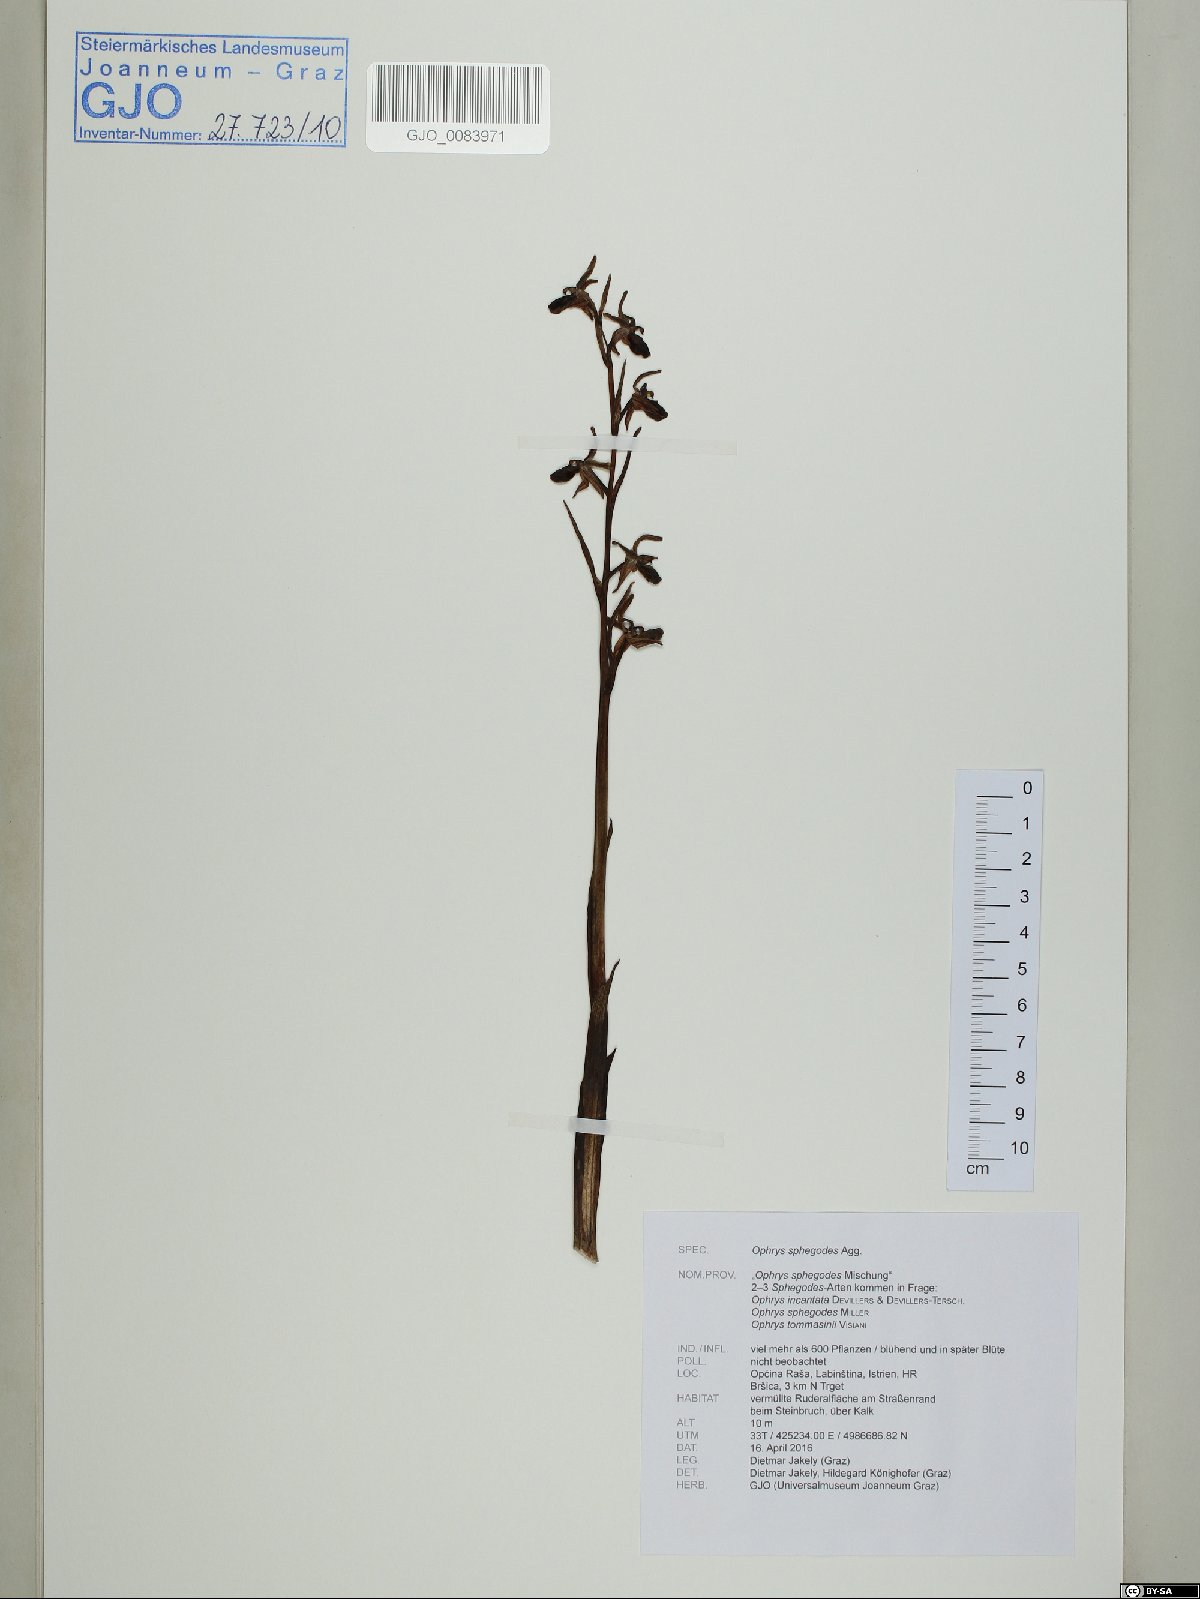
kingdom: Plantae
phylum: Tracheophyta
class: Liliopsida
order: Asparagales
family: Orchidaceae
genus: Ophrys
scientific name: Ophrys sphegodes
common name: Early spider-orchid
